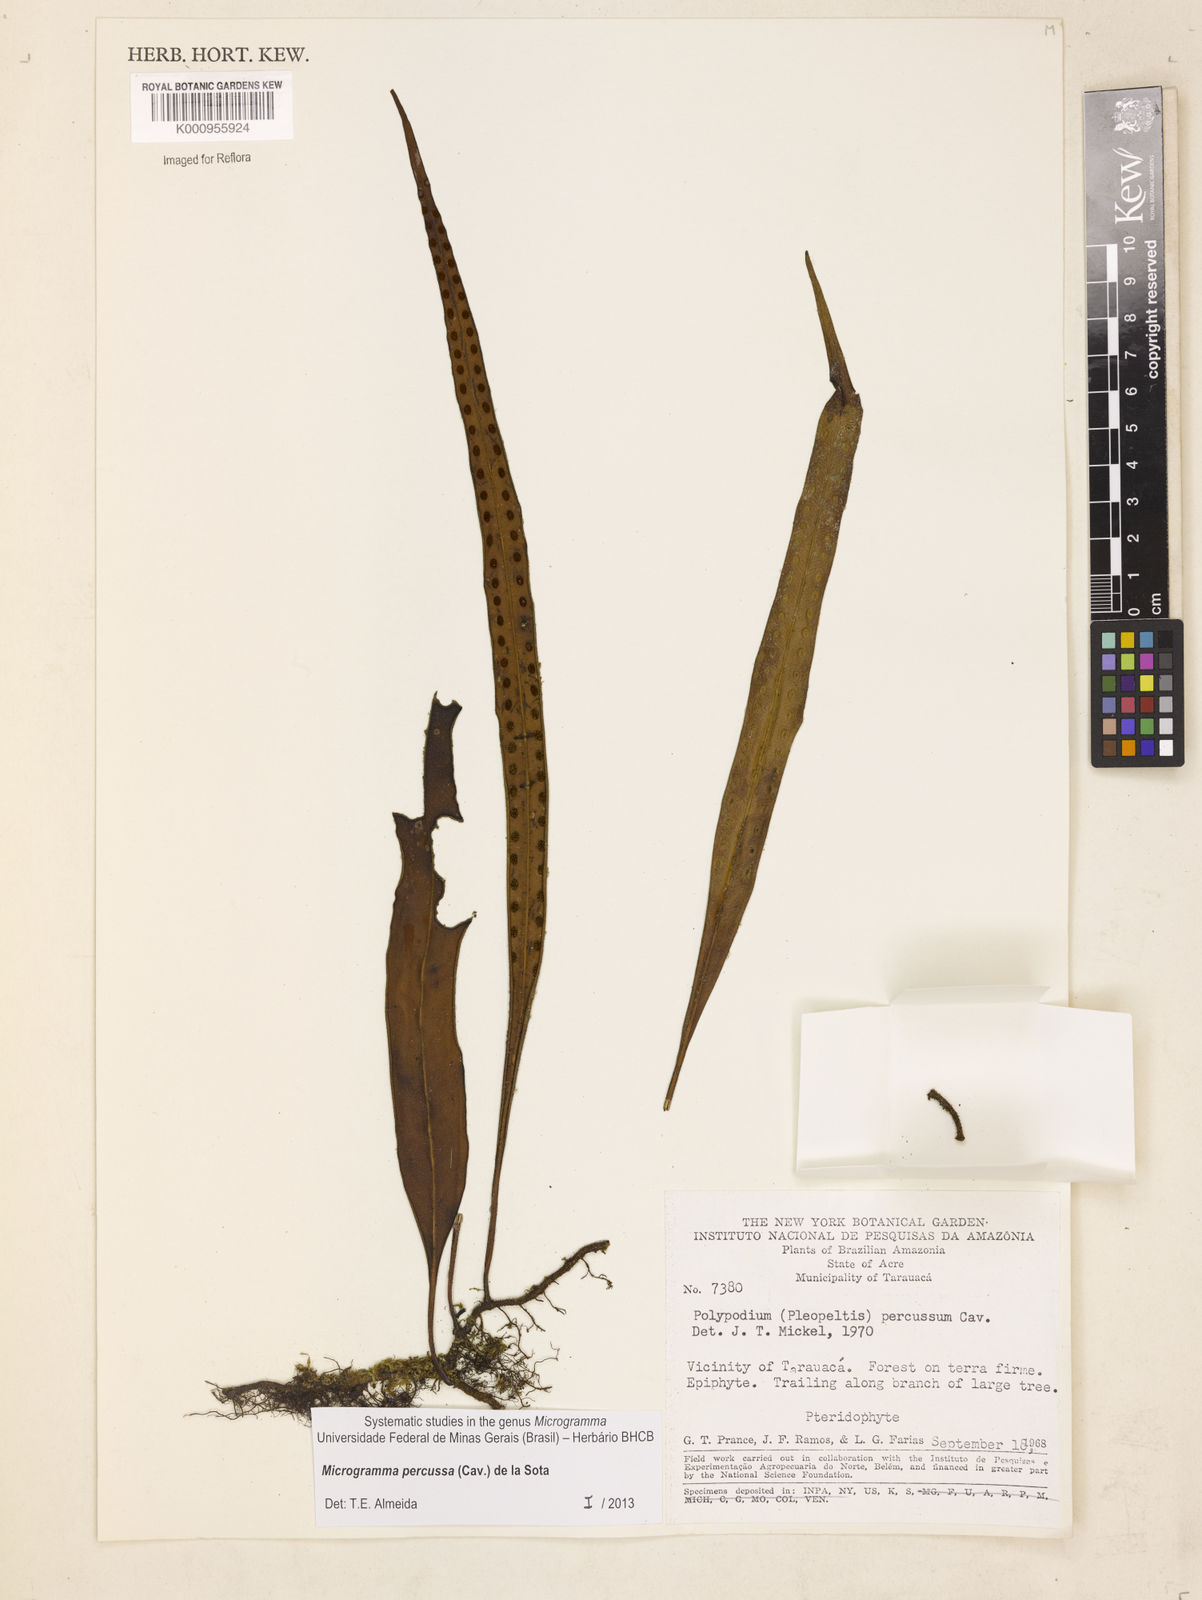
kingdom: Plantae
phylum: Tracheophyta
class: Polypodiopsida
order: Polypodiales
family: Polypodiaceae
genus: Microgramma
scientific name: Microgramma percussa
